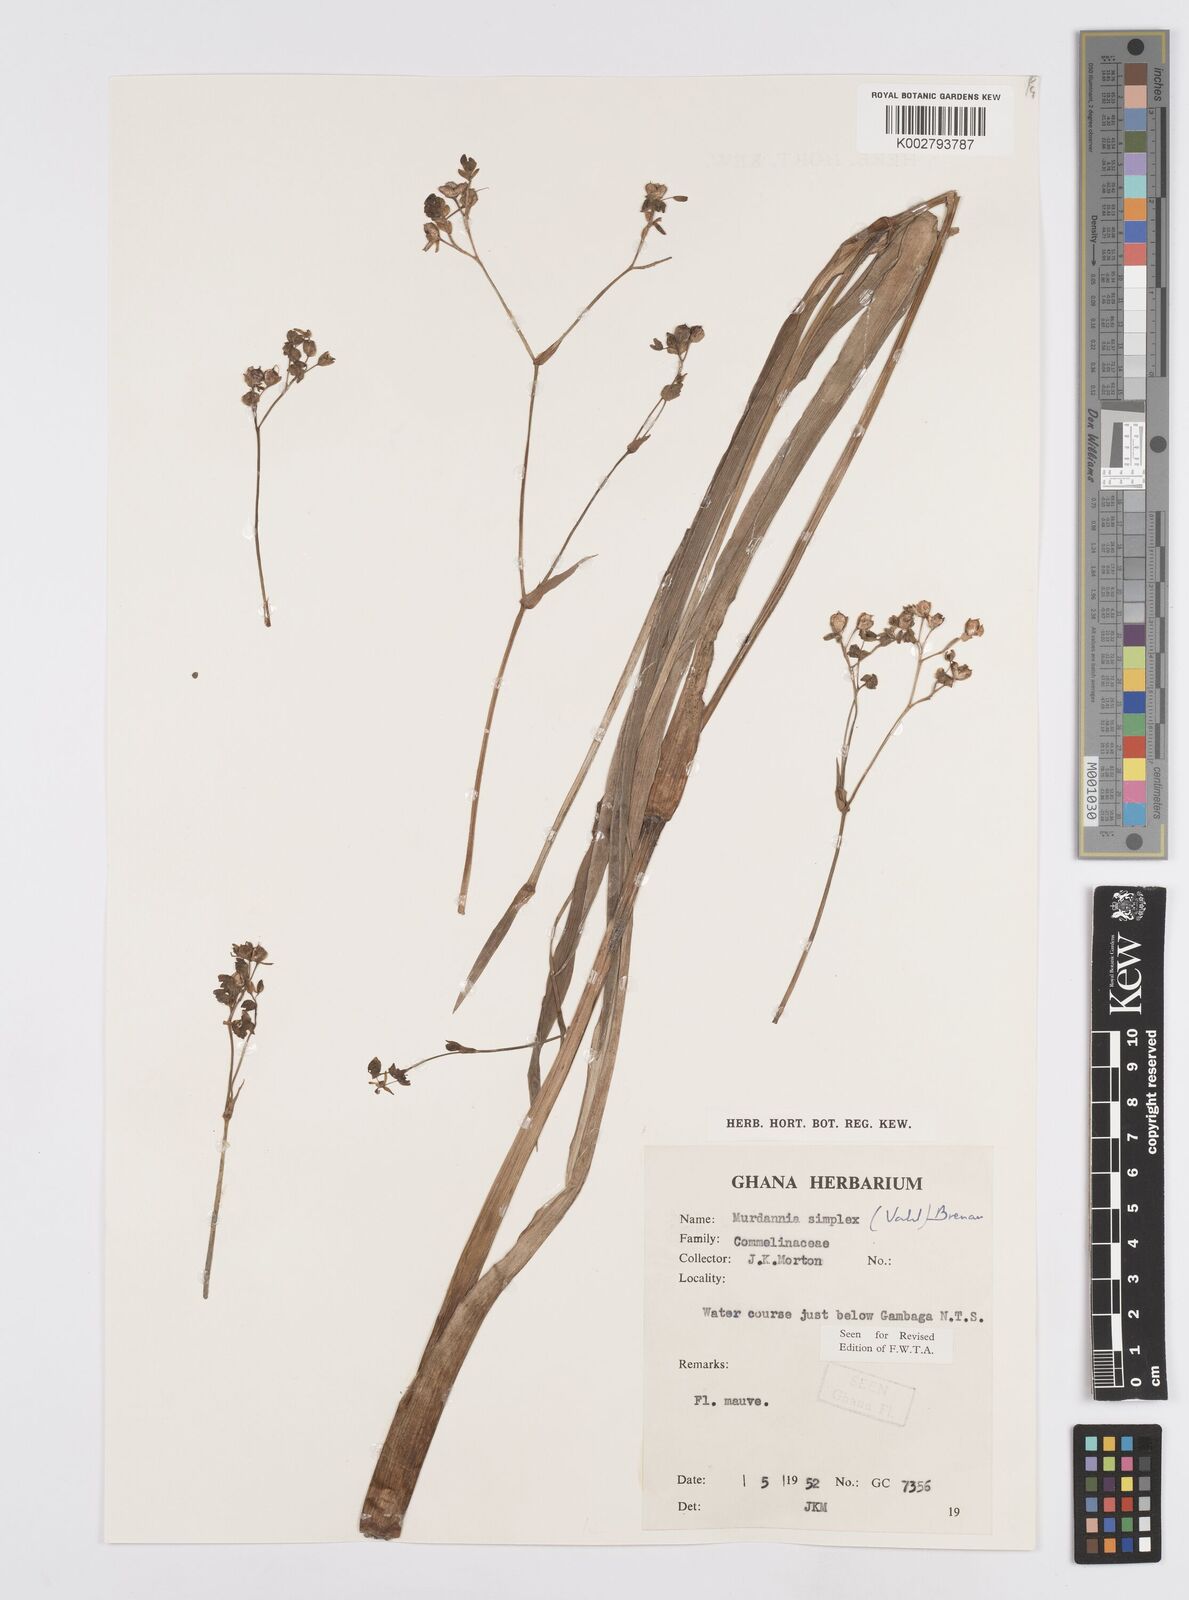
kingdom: Plantae
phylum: Tracheophyta
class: Liliopsida
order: Commelinales
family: Commelinaceae
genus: Murdannia
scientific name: Murdannia simplex
